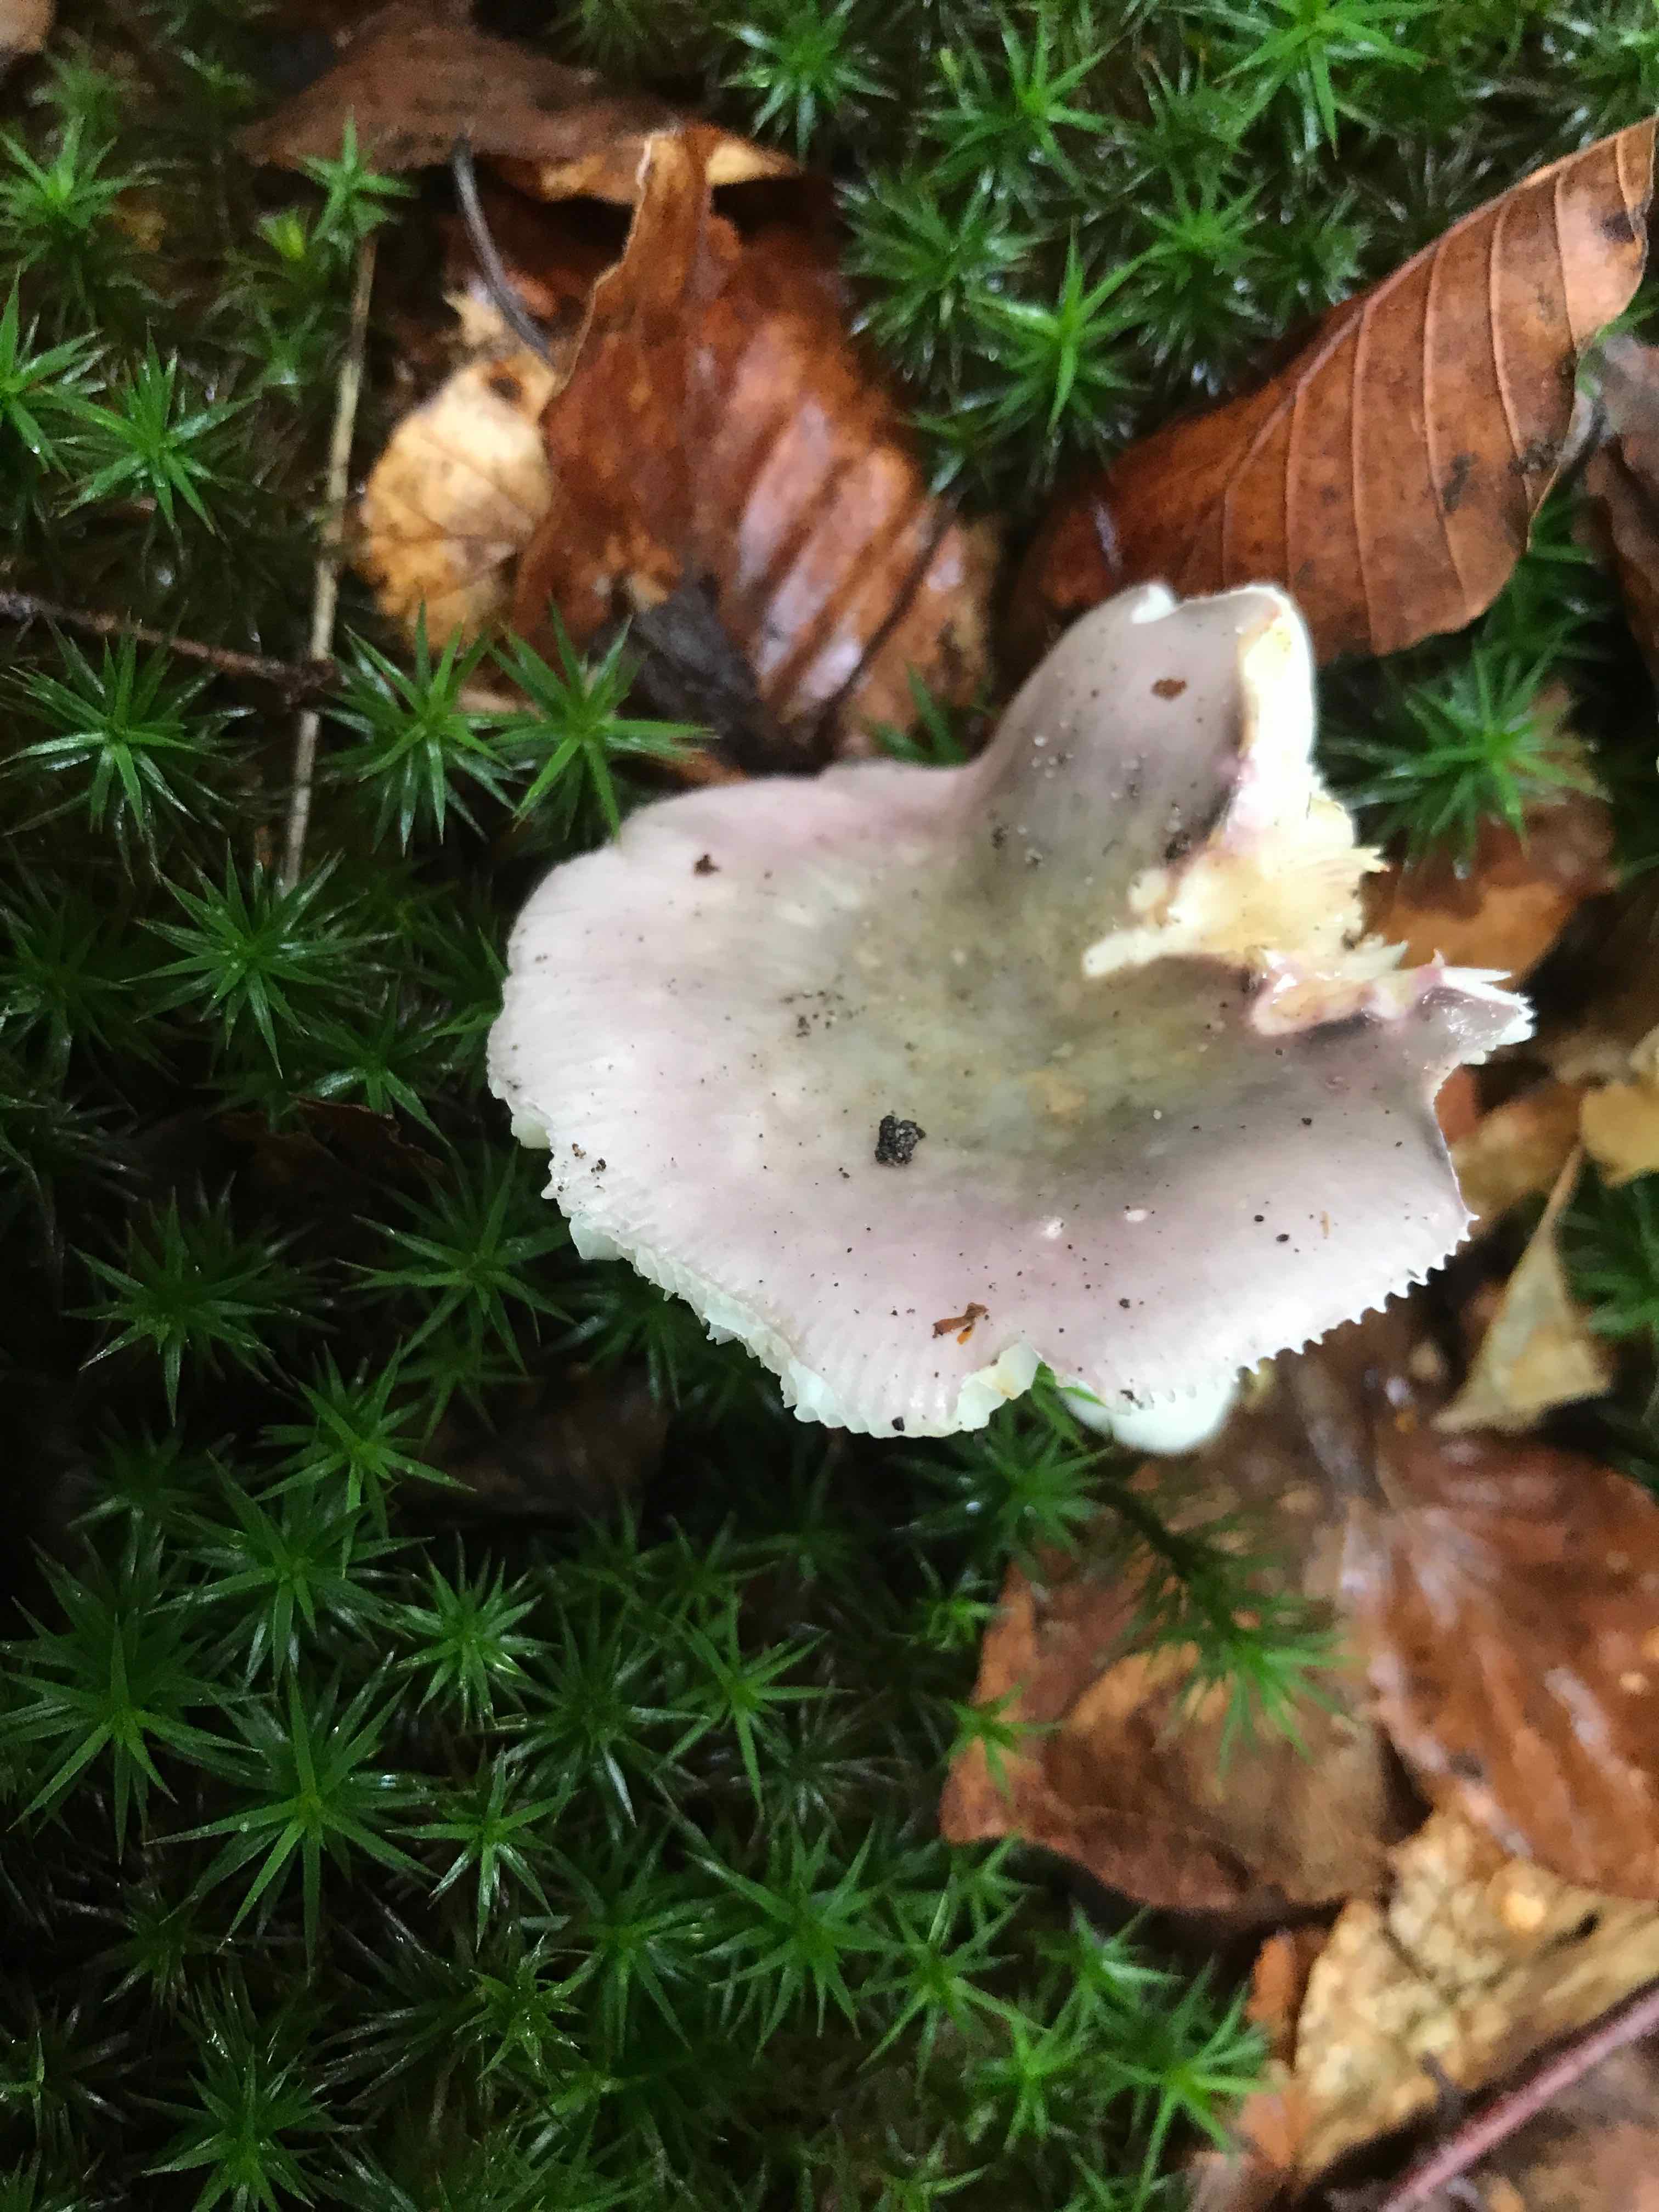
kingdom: Fungi
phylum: Basidiomycota
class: Agaricomycetes
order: Russulales
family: Russulaceae
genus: Russula
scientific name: Russula cyanoxantha
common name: broget skørhat
